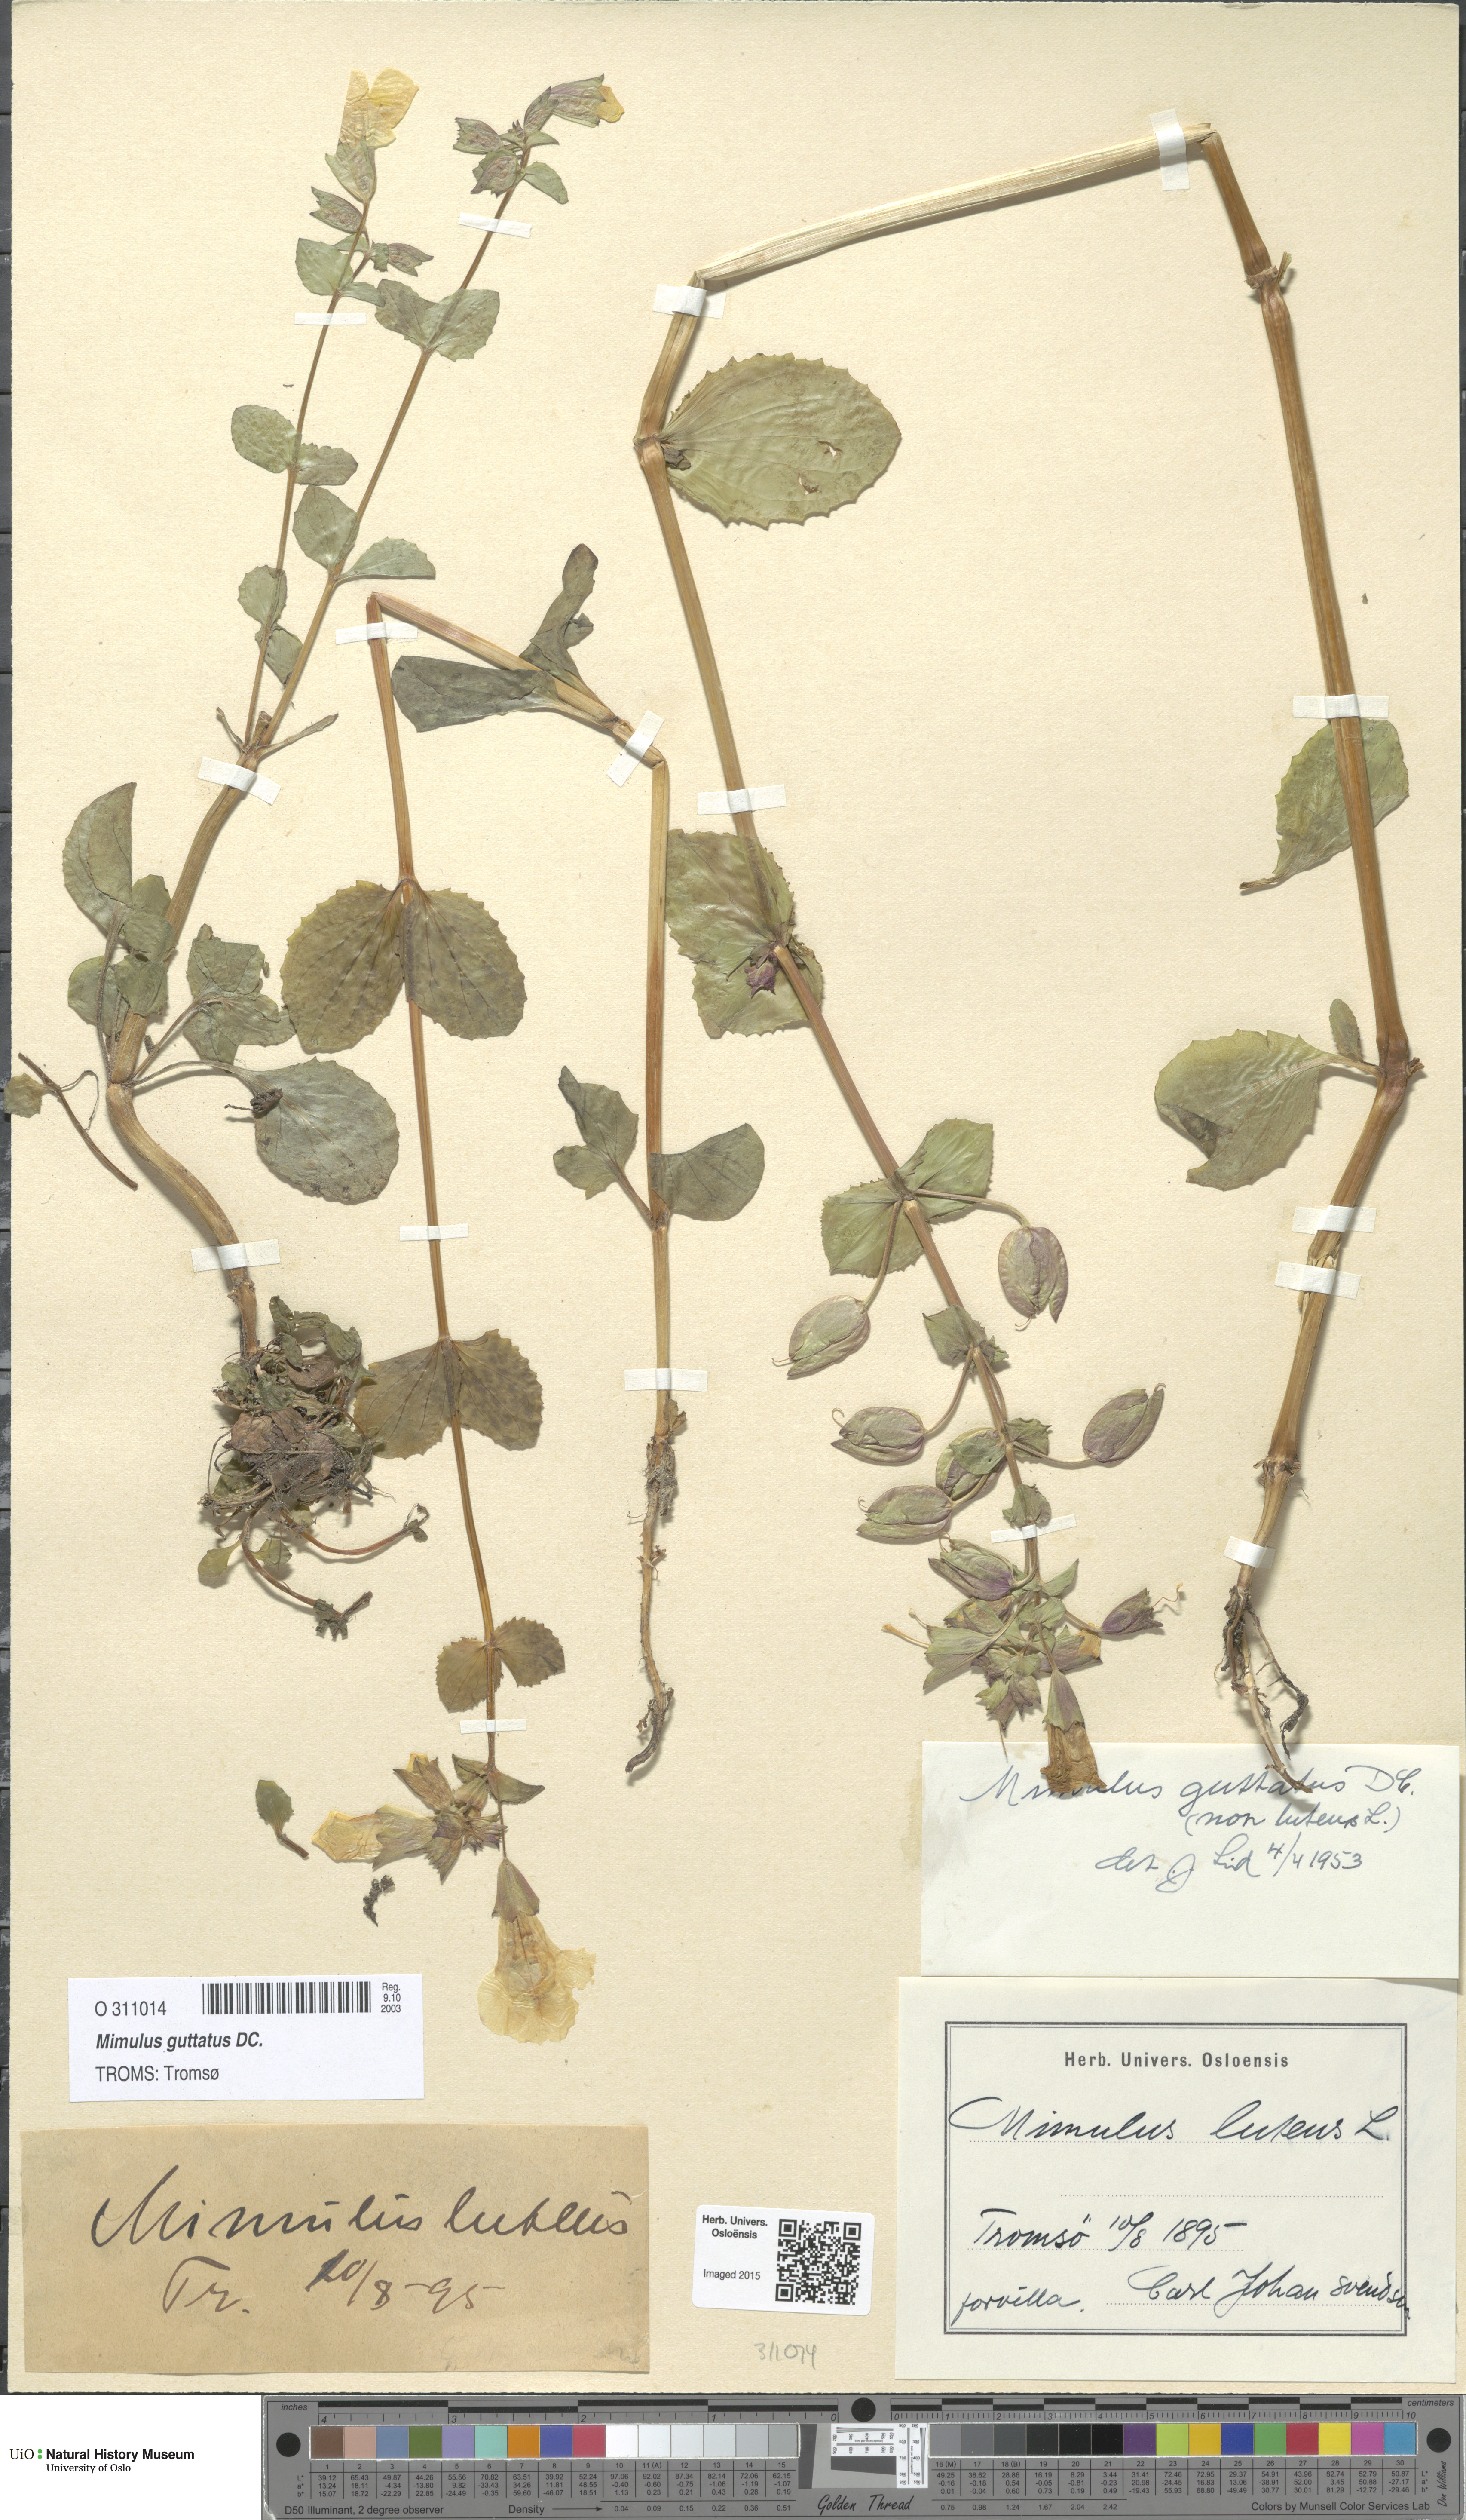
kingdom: Plantae
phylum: Tracheophyta
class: Magnoliopsida
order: Lamiales
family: Phrymaceae
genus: Erythranthe
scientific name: Erythranthe guttata
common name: Monkeyflower
